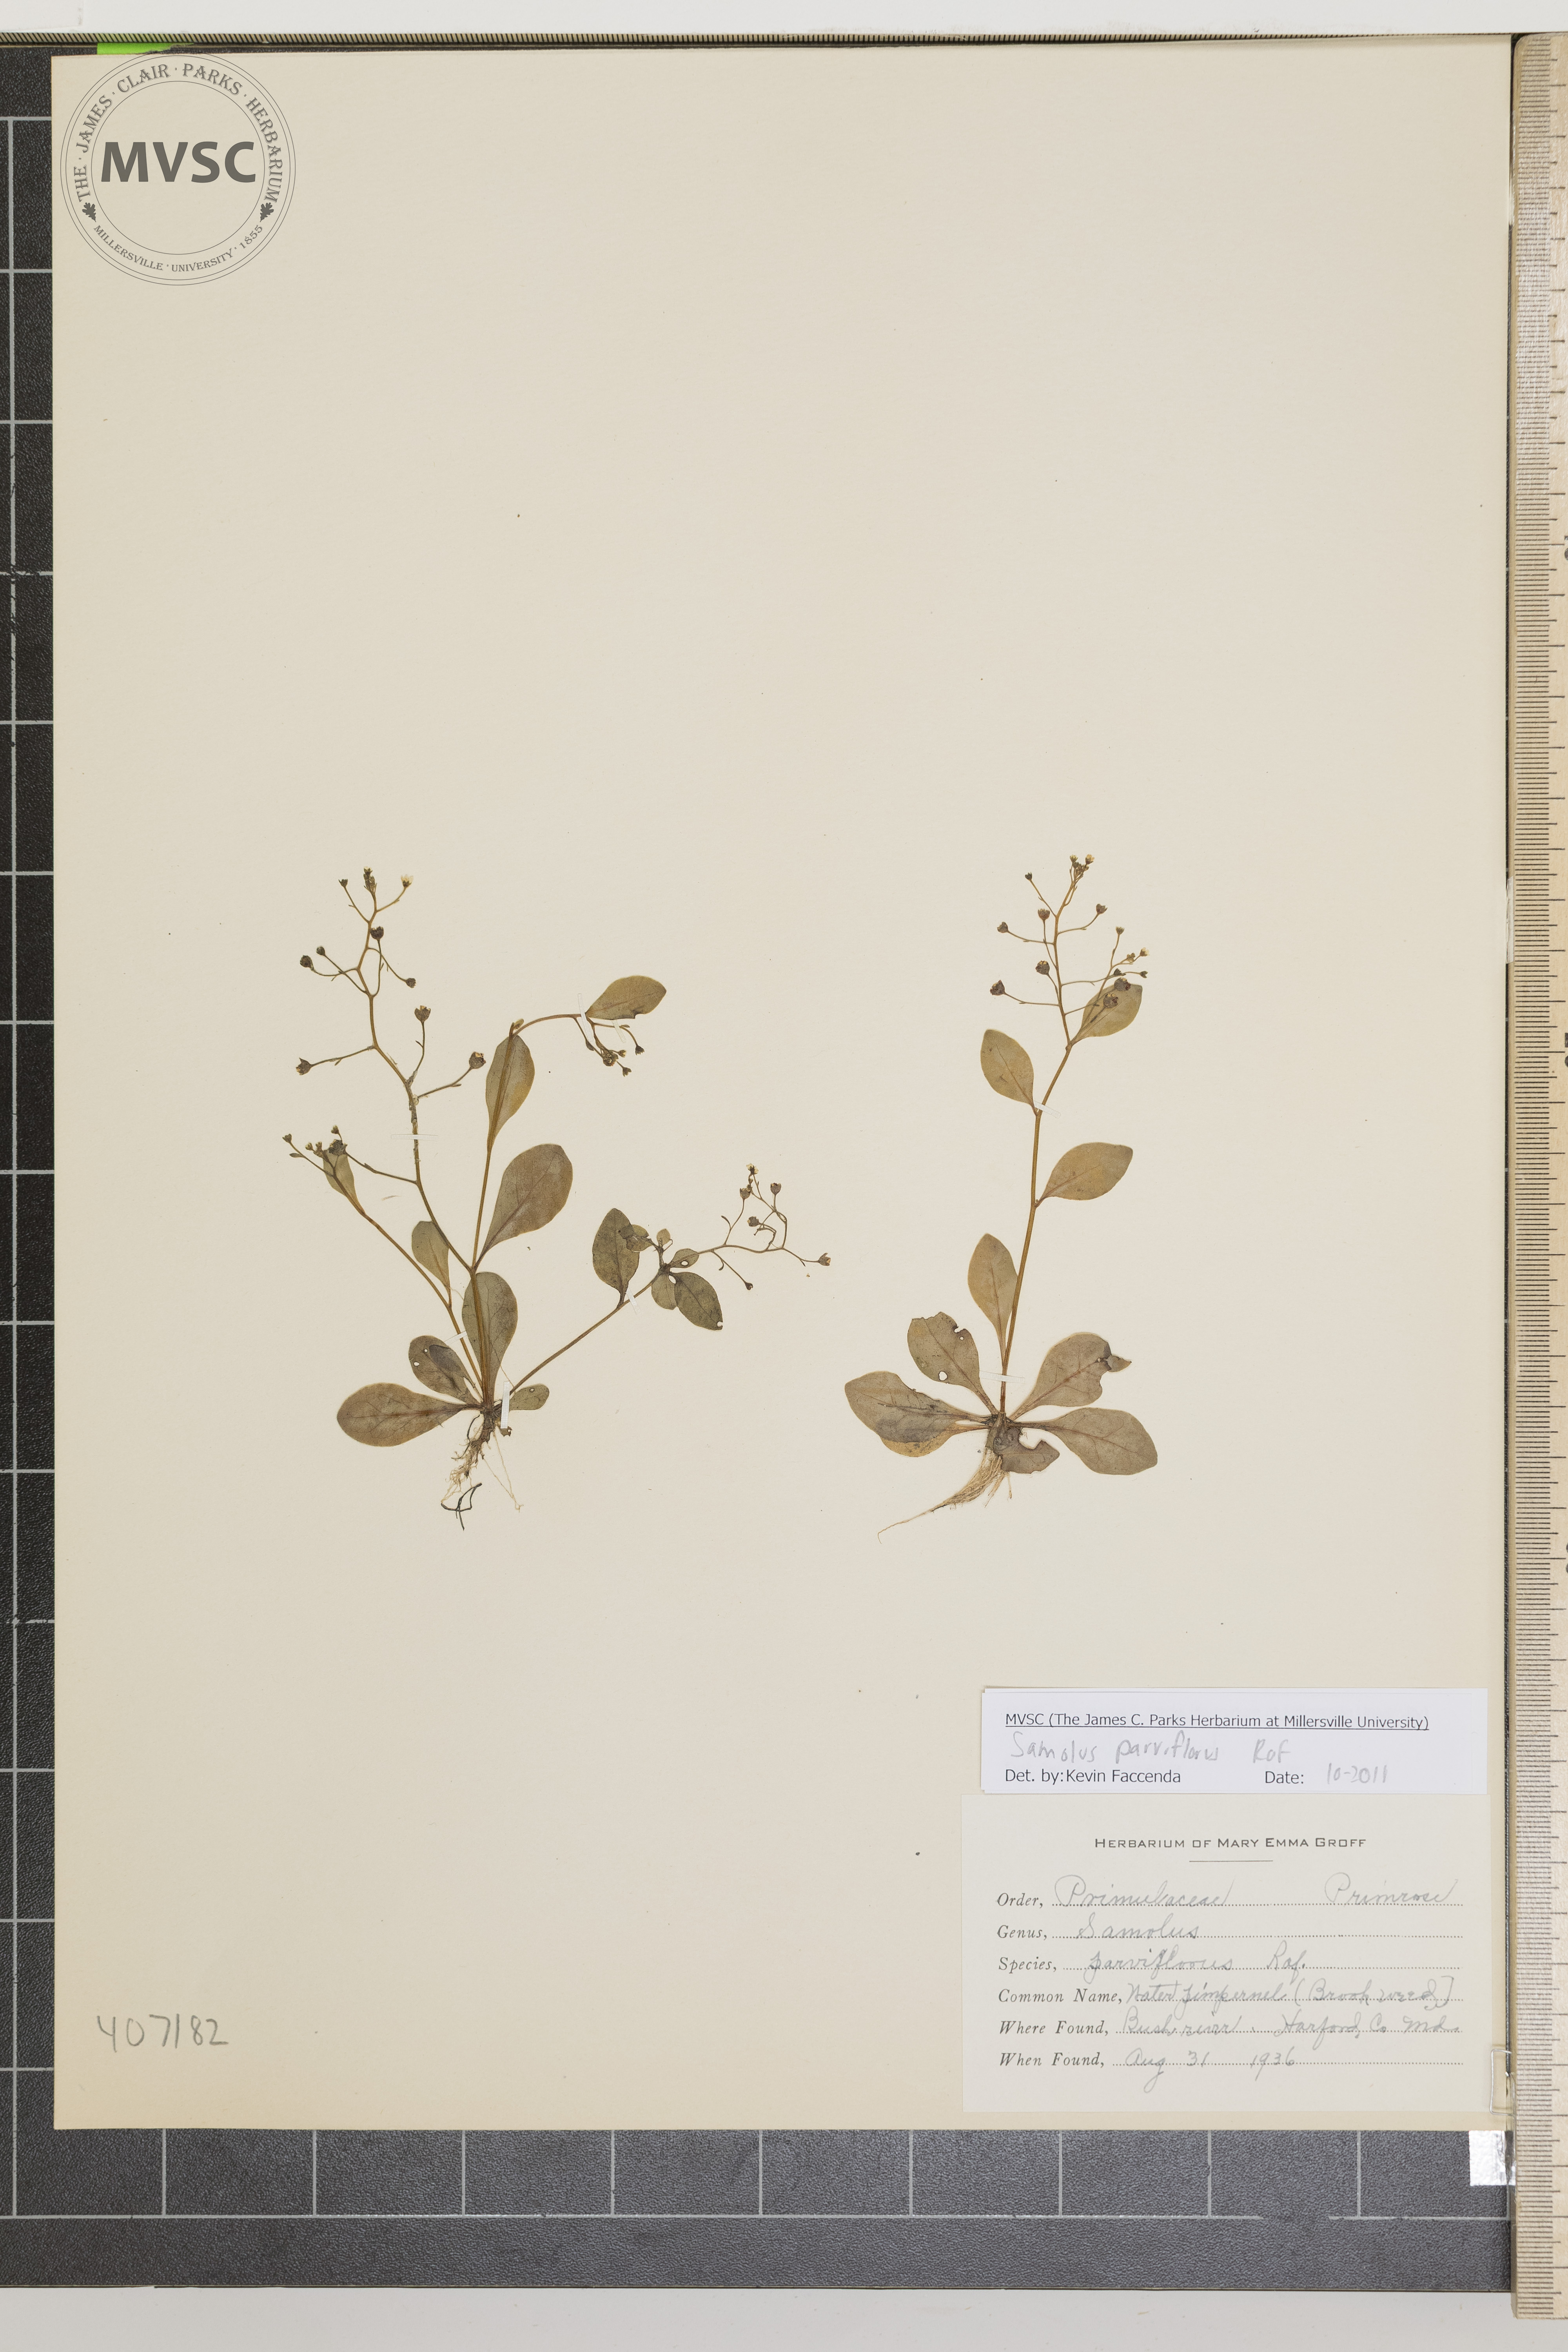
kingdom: Plantae
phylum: Tracheophyta
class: Magnoliopsida
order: Ericales
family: Primulaceae
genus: Samolus
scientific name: Samolus parviflorus
